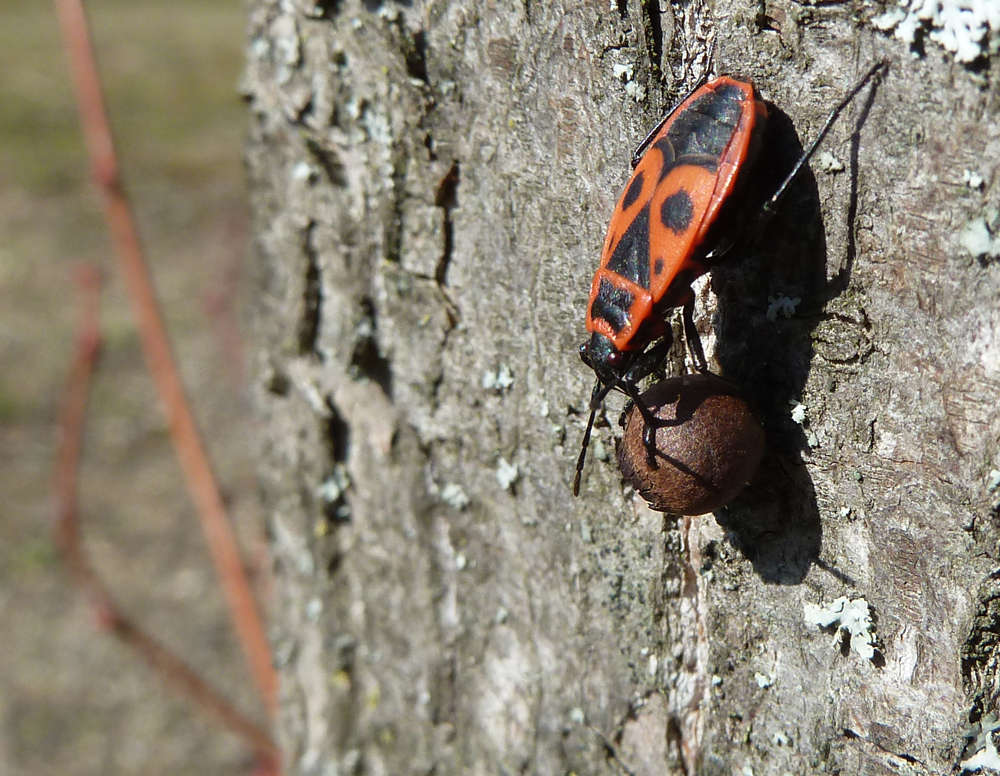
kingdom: Animalia
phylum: Arthropoda
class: Insecta
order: Hemiptera
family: Pyrrhocoridae
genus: Pyrrhocoris
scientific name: Pyrrhocoris apterus
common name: Firebug
